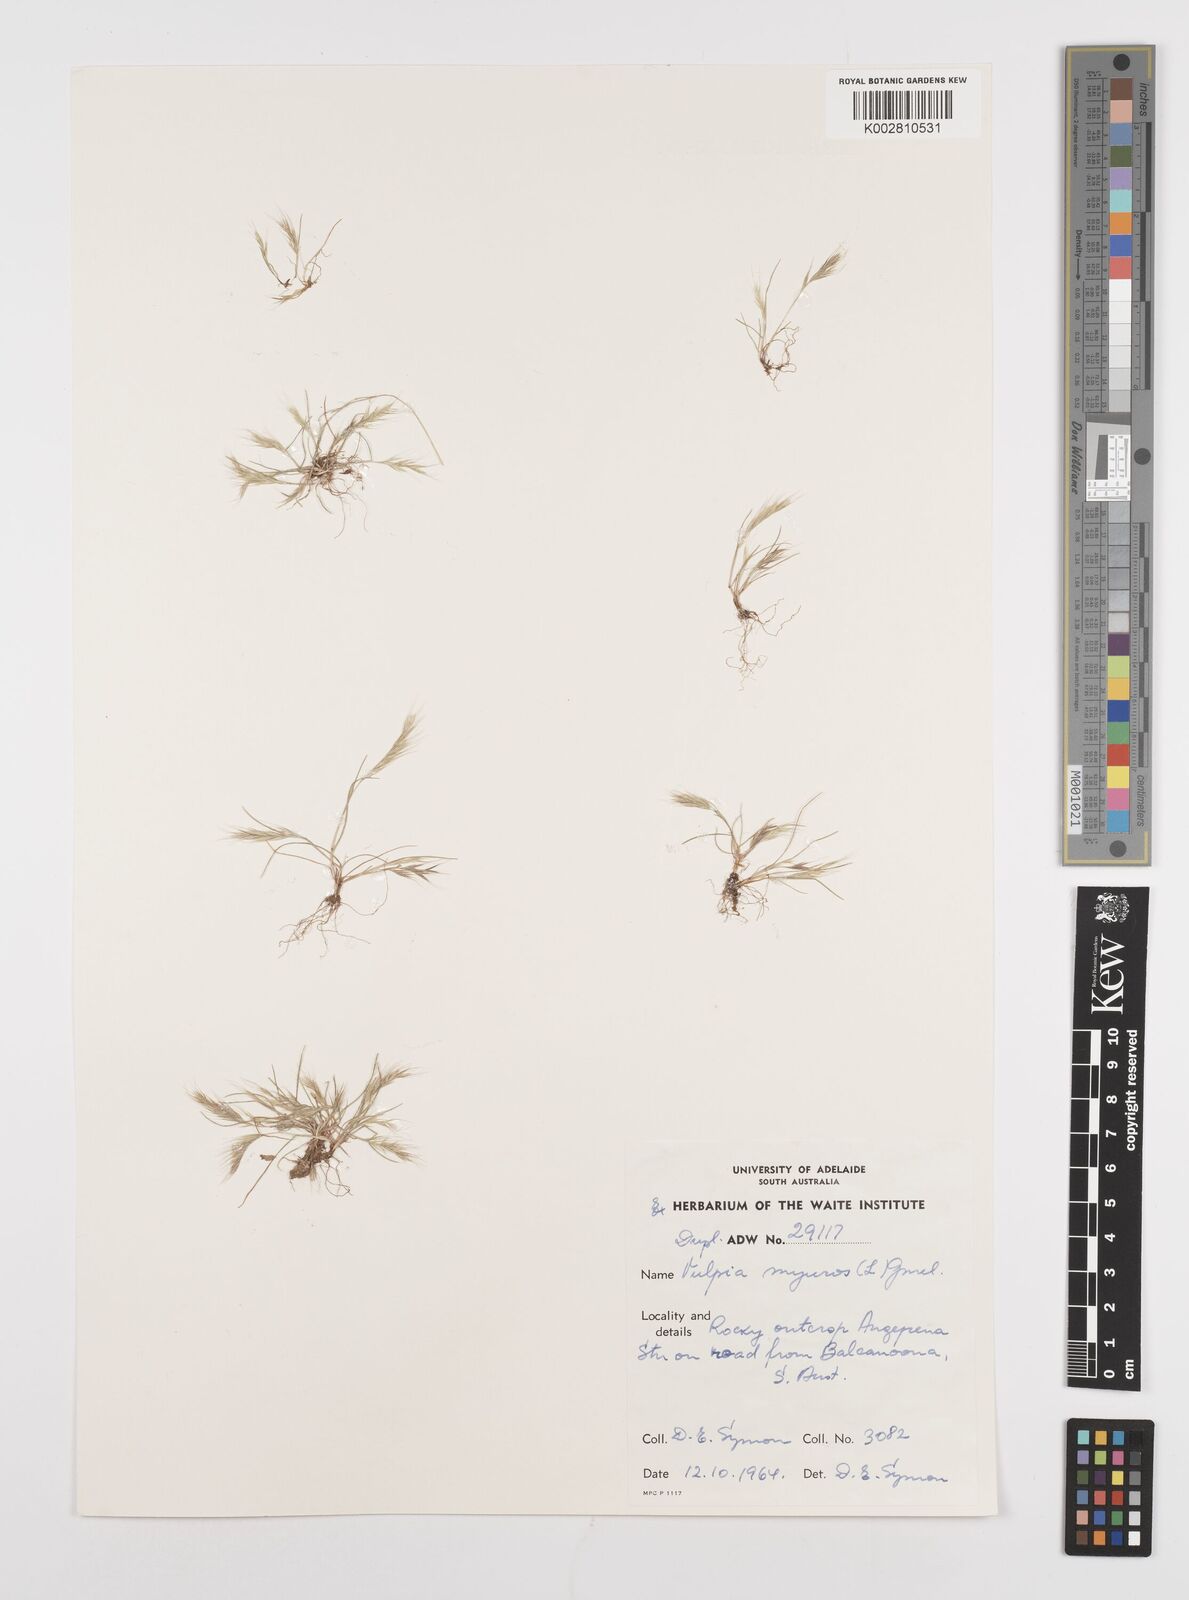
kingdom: Plantae
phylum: Tracheophyta
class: Liliopsida
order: Poales
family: Poaceae
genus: Festuca
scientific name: Festuca myuros
